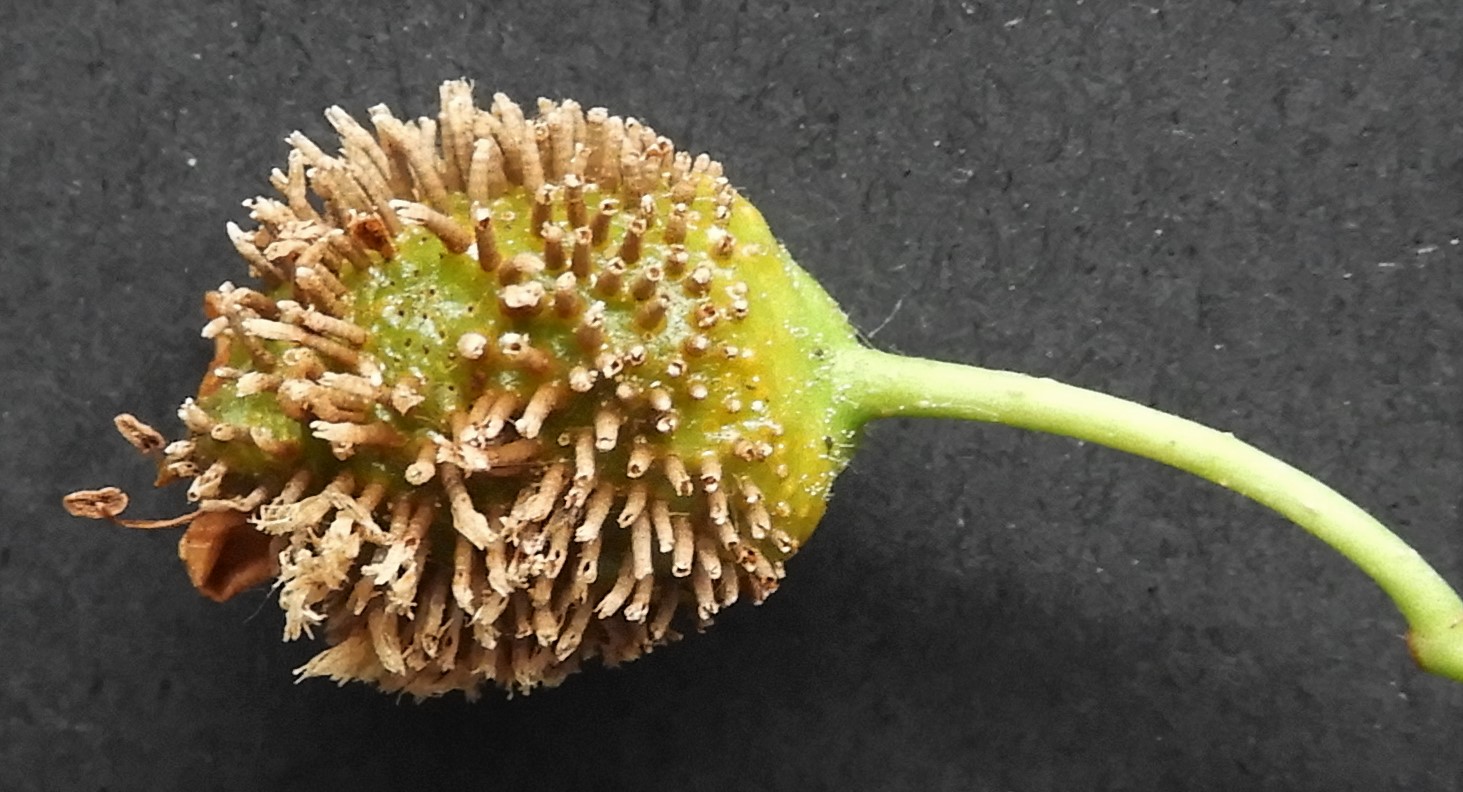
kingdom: Fungi
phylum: Basidiomycota
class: Pucciniomycetes
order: Pucciniales
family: Gymnosporangiaceae
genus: Gymnosporangium
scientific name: Gymnosporangium clavariiforme
